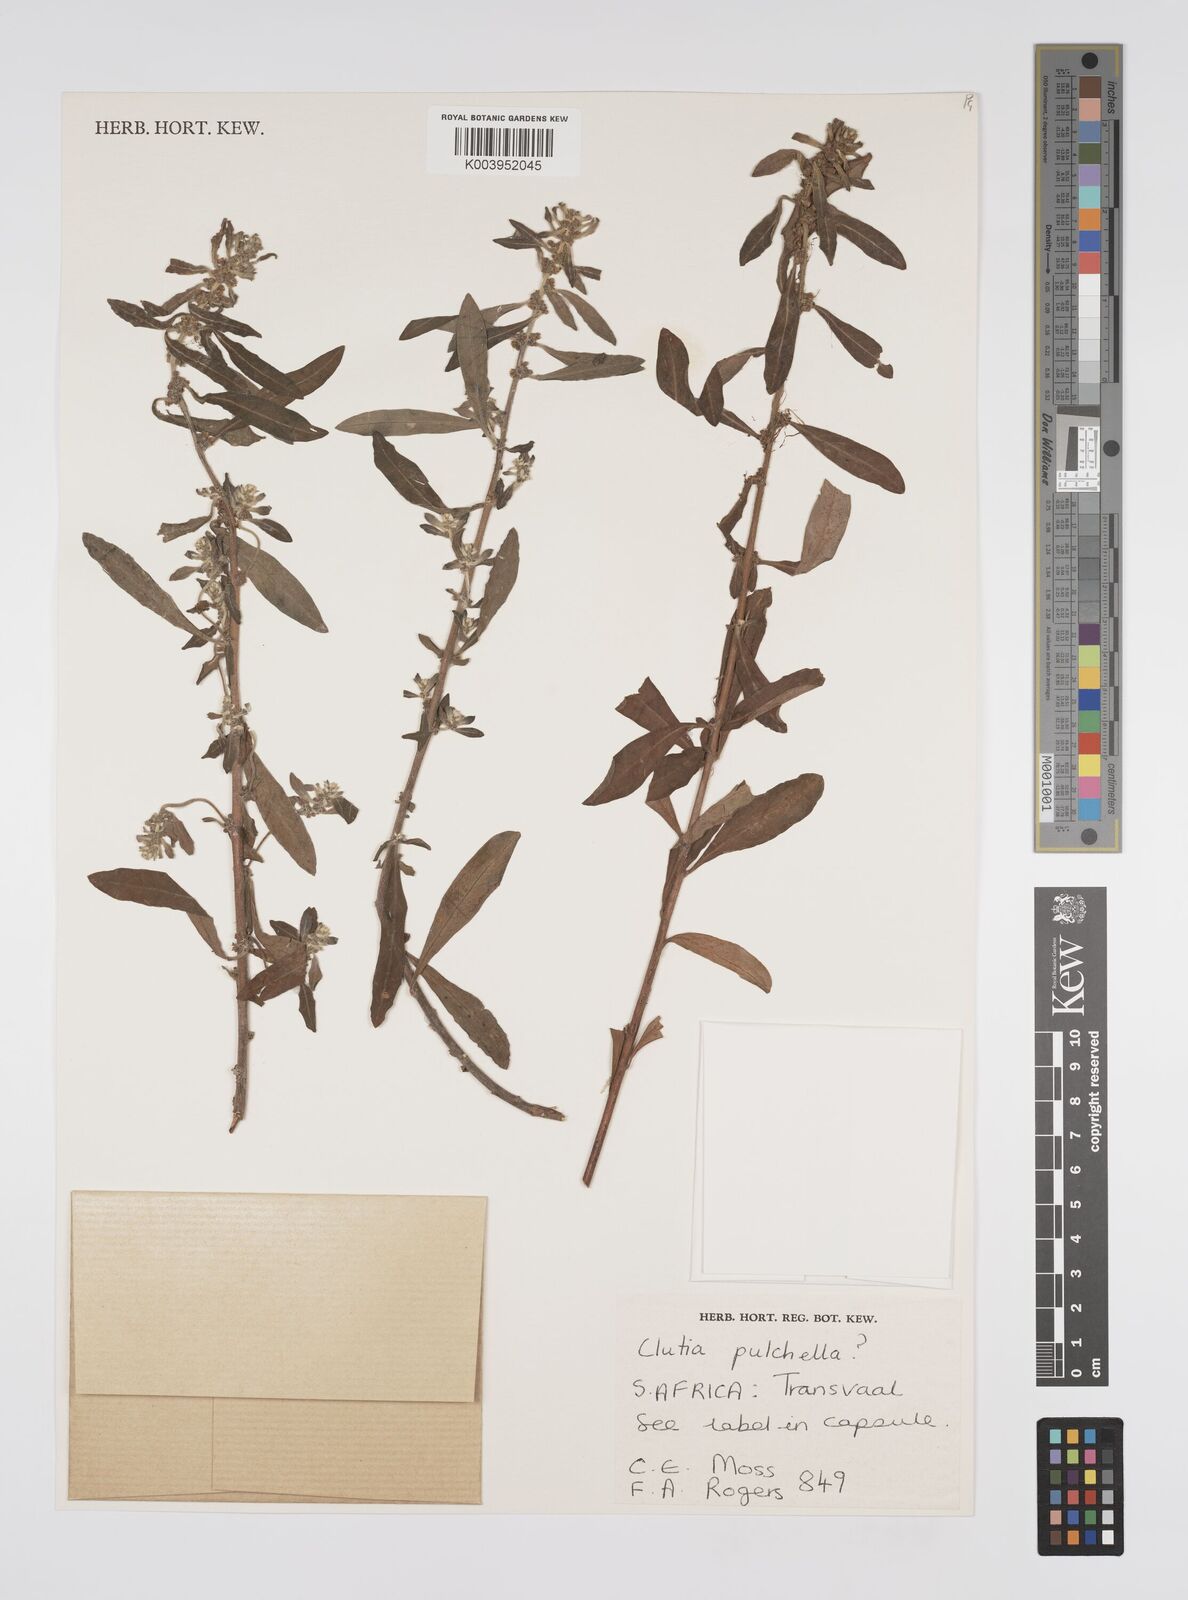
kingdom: Plantae
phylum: Tracheophyta
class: Magnoliopsida
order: Malpighiales
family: Peraceae
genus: Clutia
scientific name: Clutia pulchella
